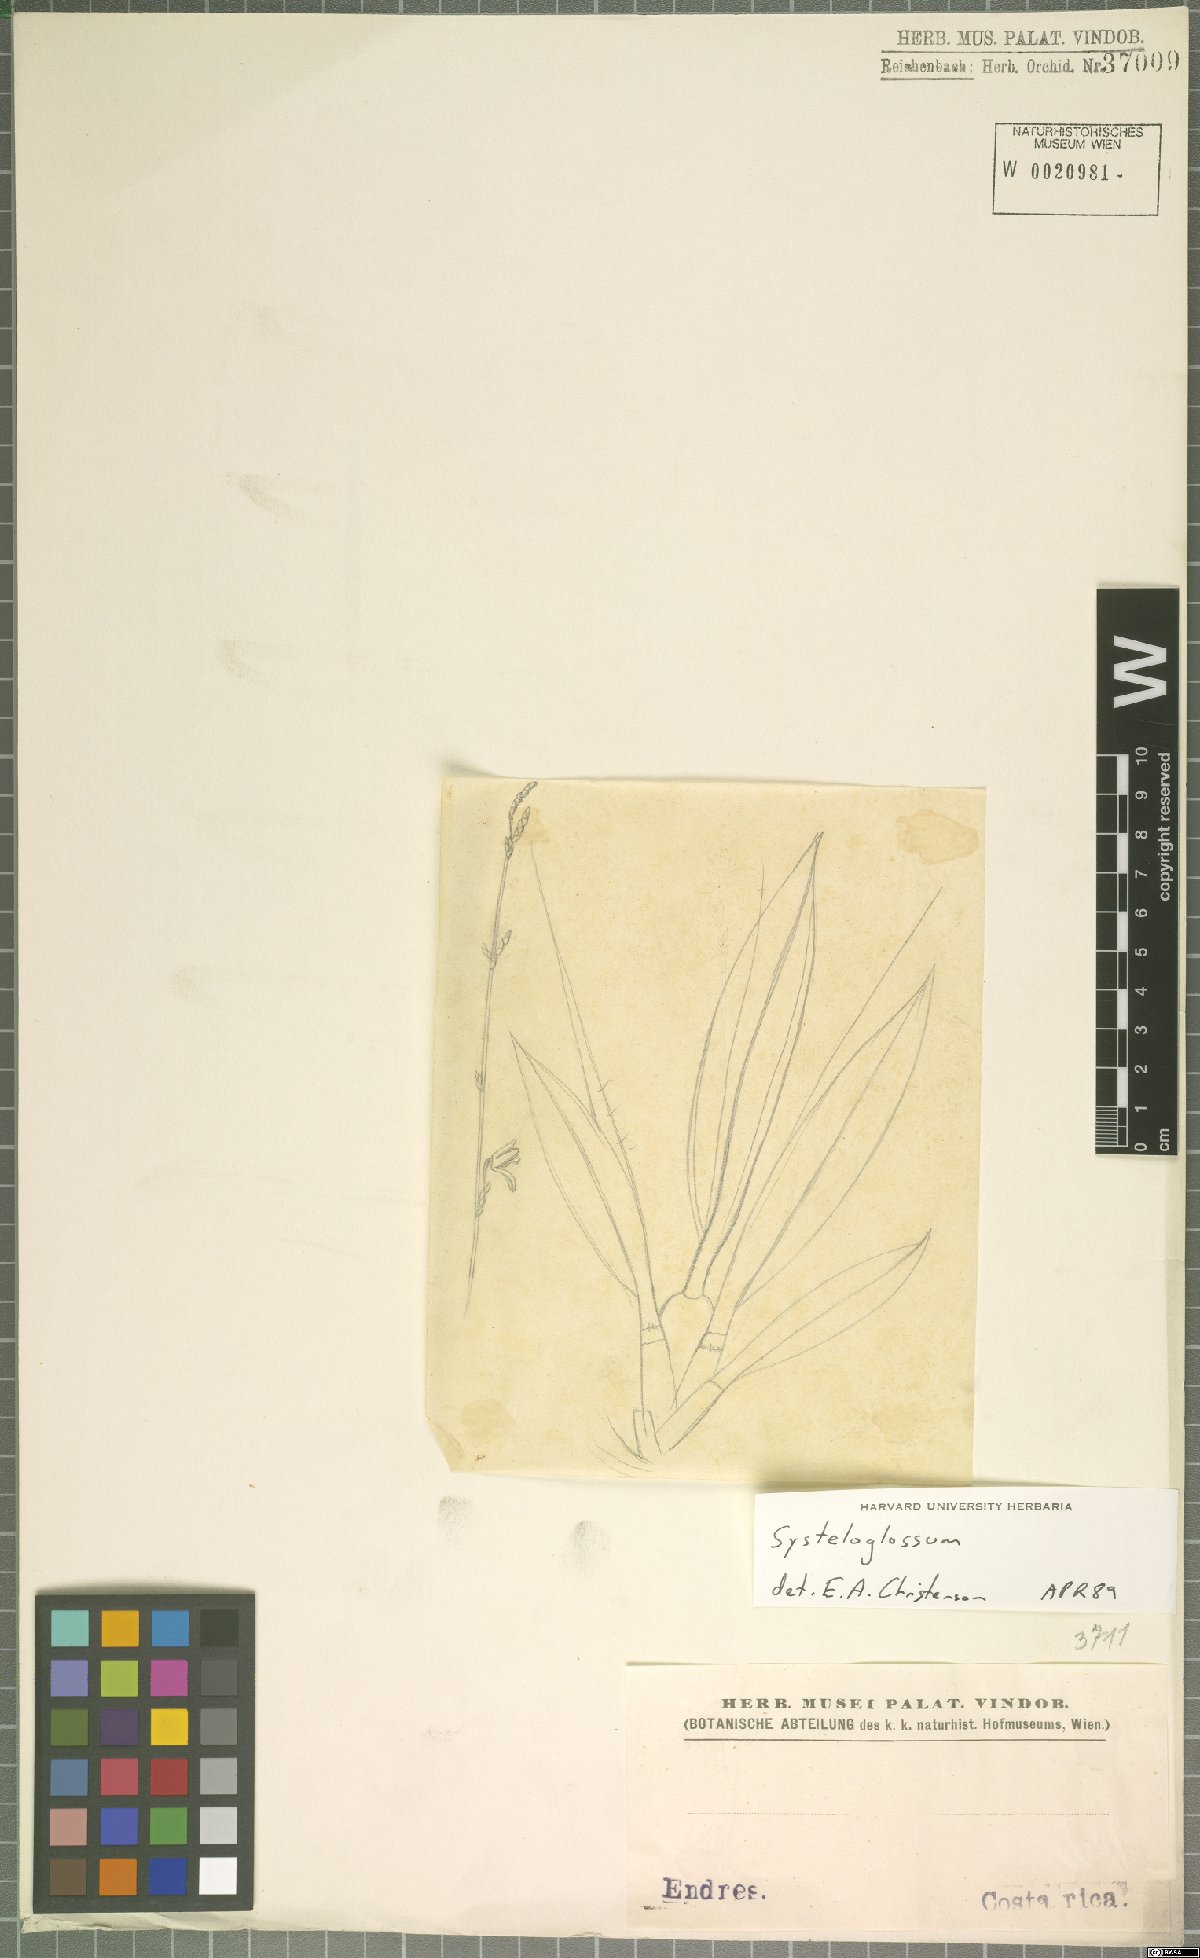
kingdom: Plantae
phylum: Tracheophyta
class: Liliopsida
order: Asparagales
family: Orchidaceae
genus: Systeloglossum
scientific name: Systeloglossum
